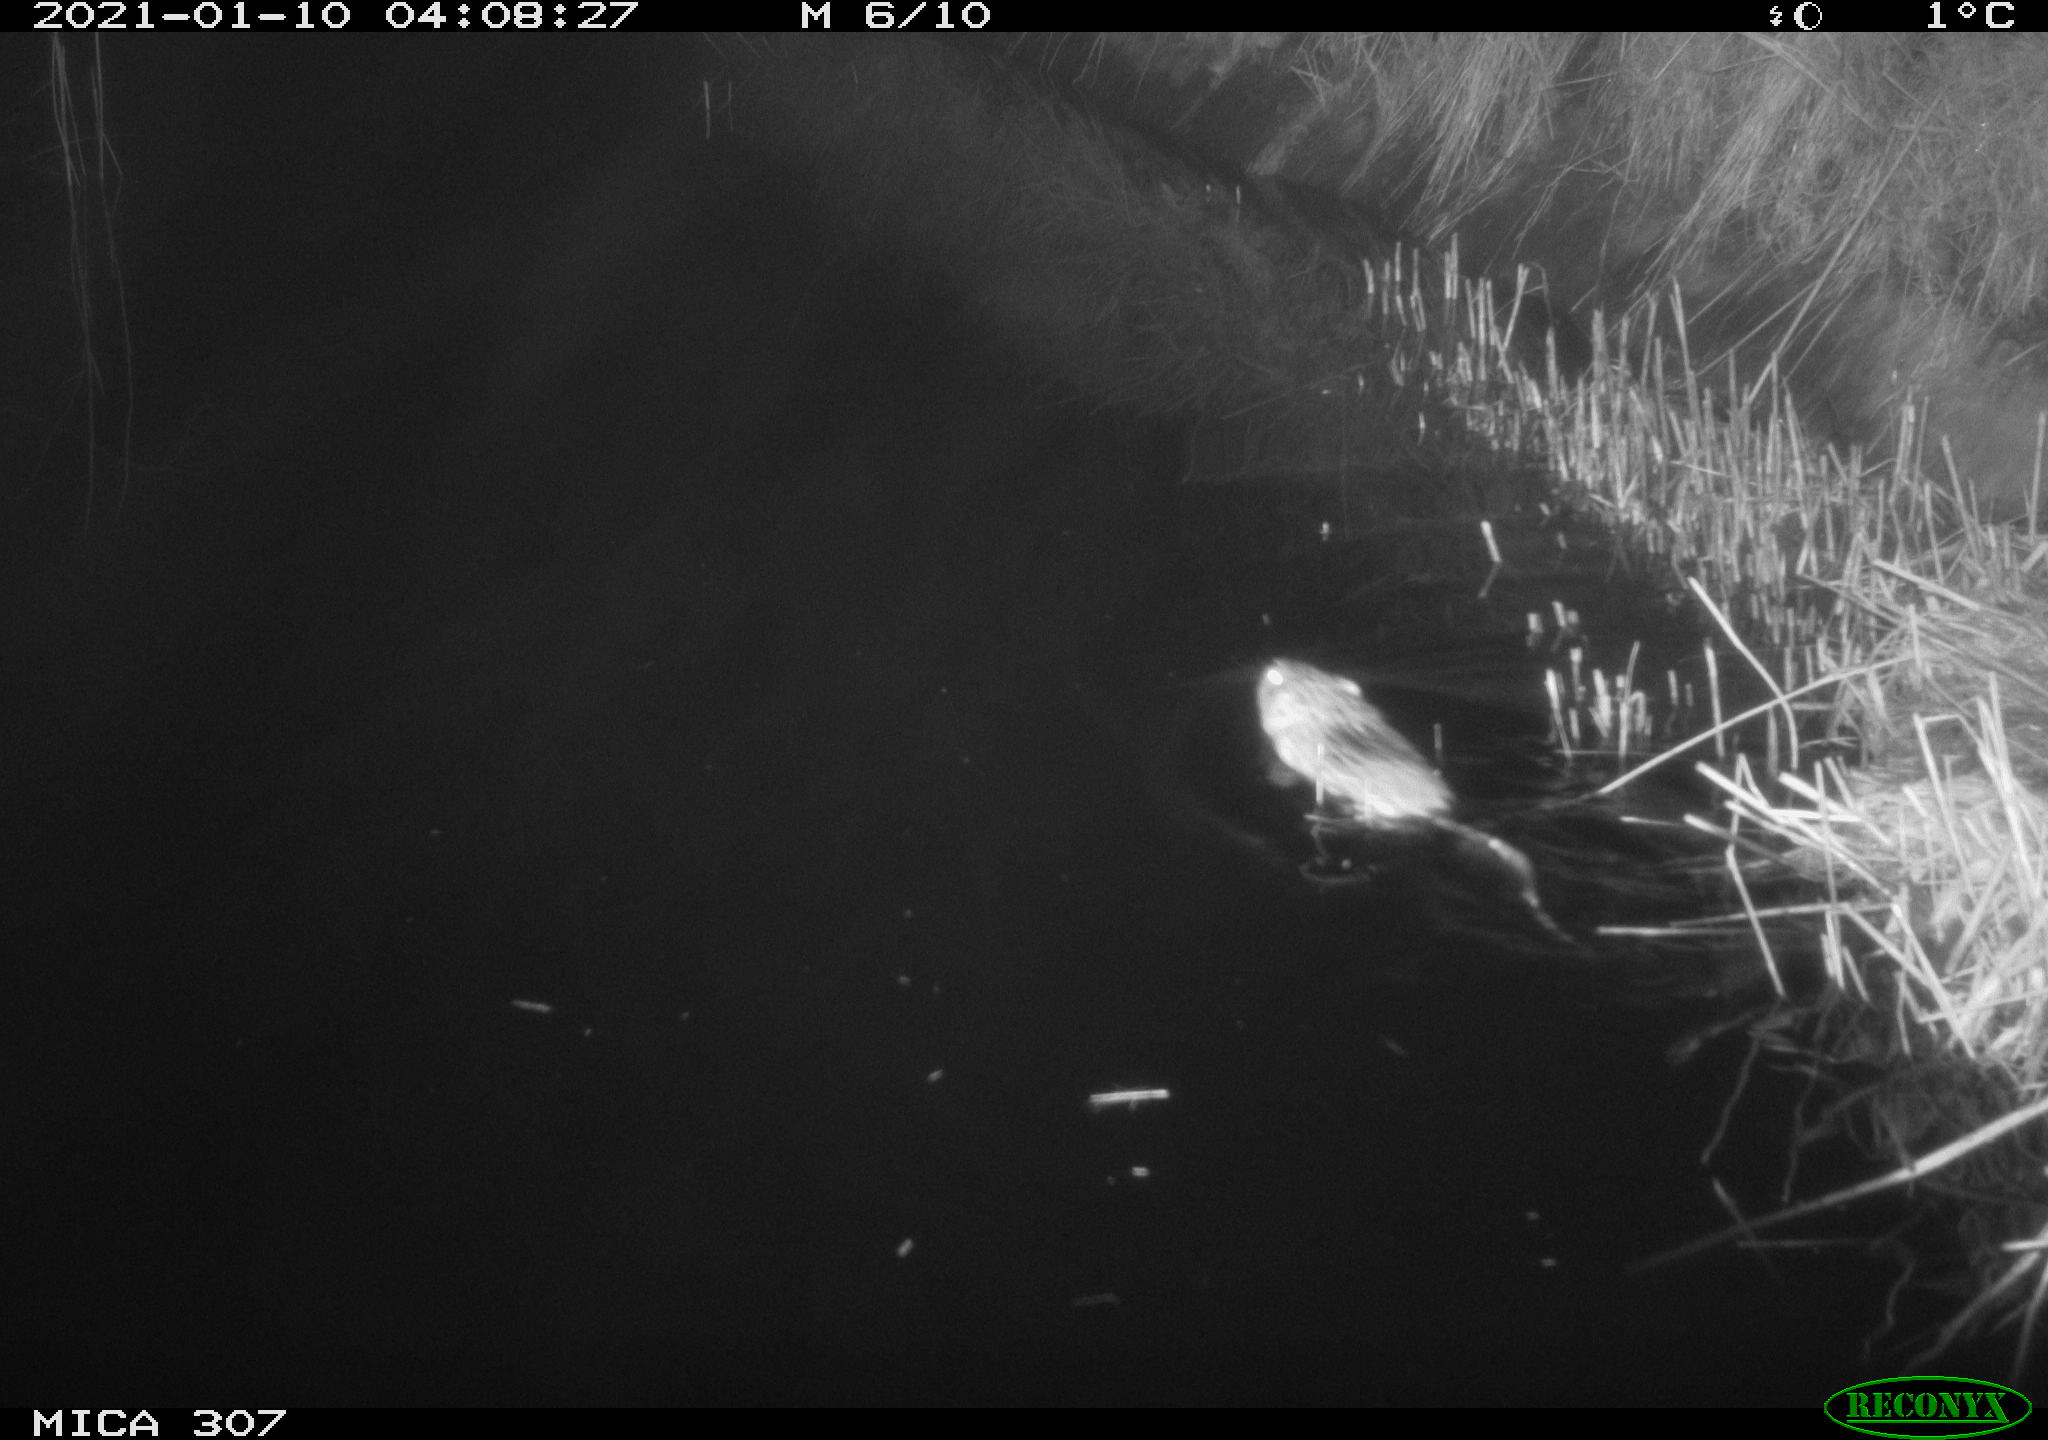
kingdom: Animalia
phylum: Chordata
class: Mammalia
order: Rodentia
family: Cricetidae
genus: Ondatra
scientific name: Ondatra zibethicus
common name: Muskrat
